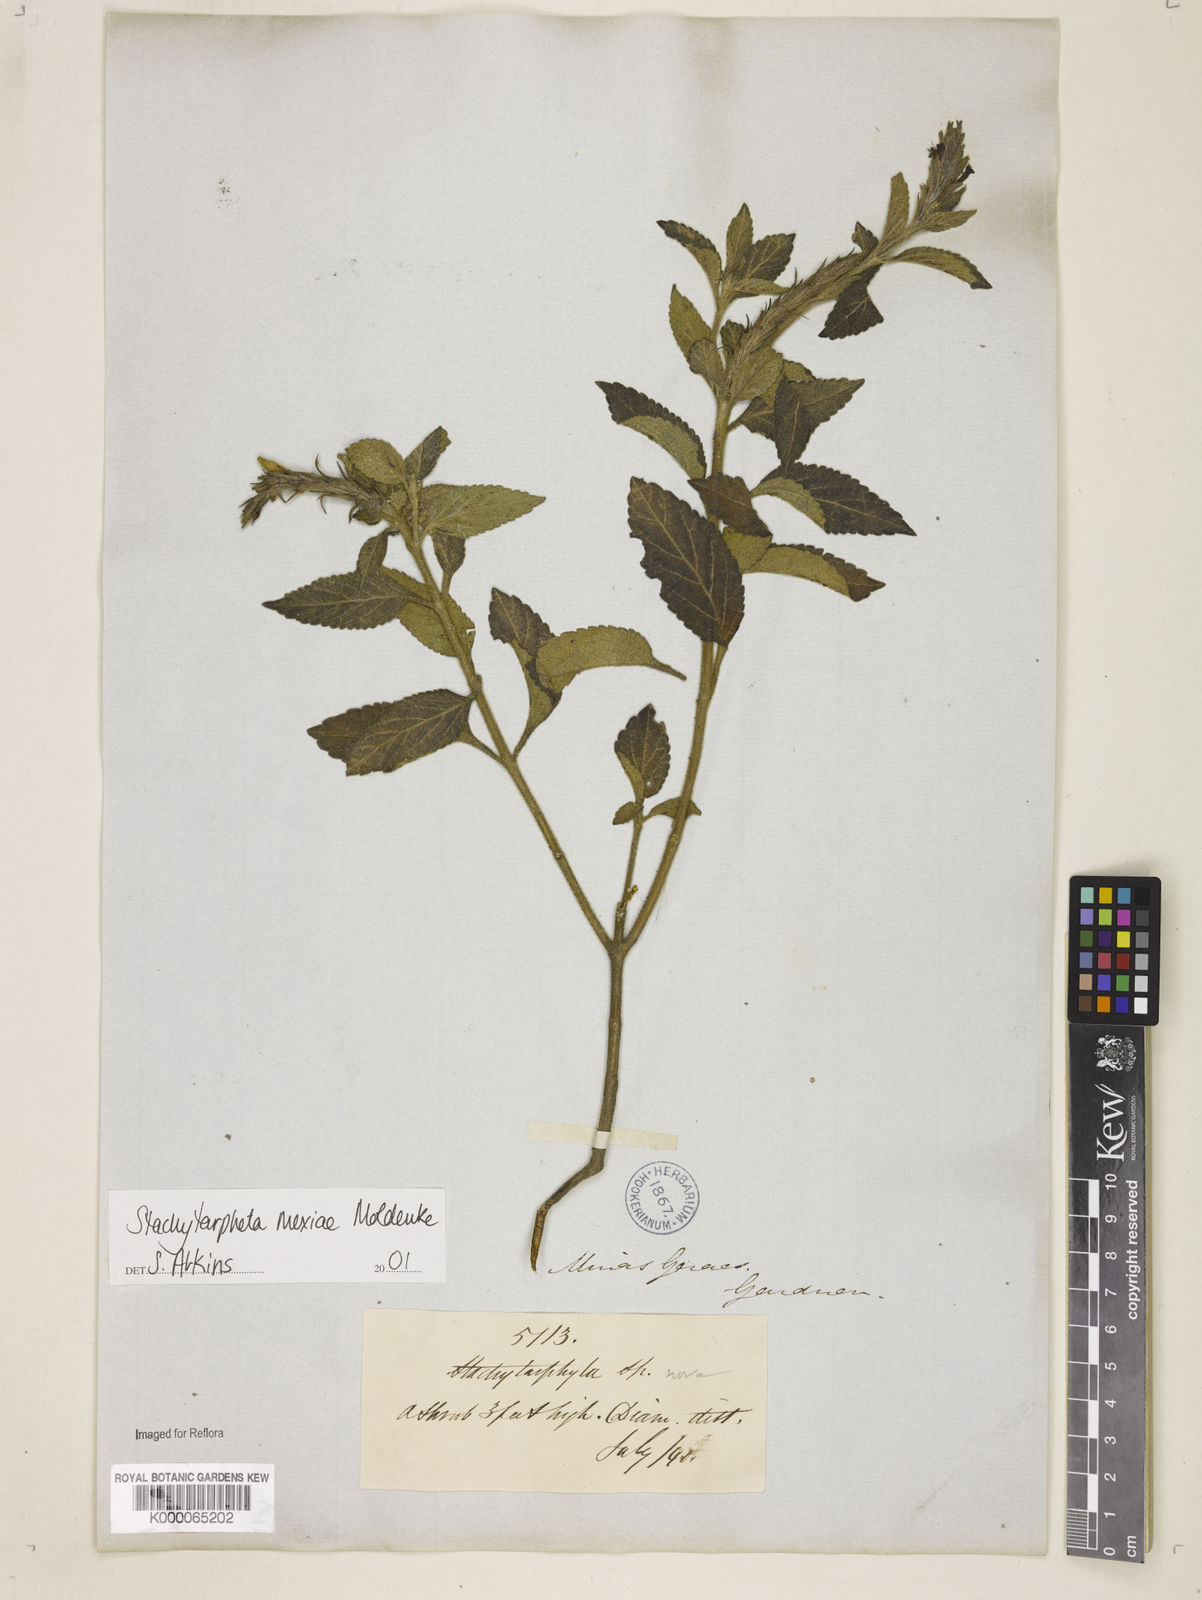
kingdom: Plantae
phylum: Tracheophyta
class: Magnoliopsida
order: Lamiales
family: Verbenaceae
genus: Stachytarpheta
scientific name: Stachytarpheta mexiae
